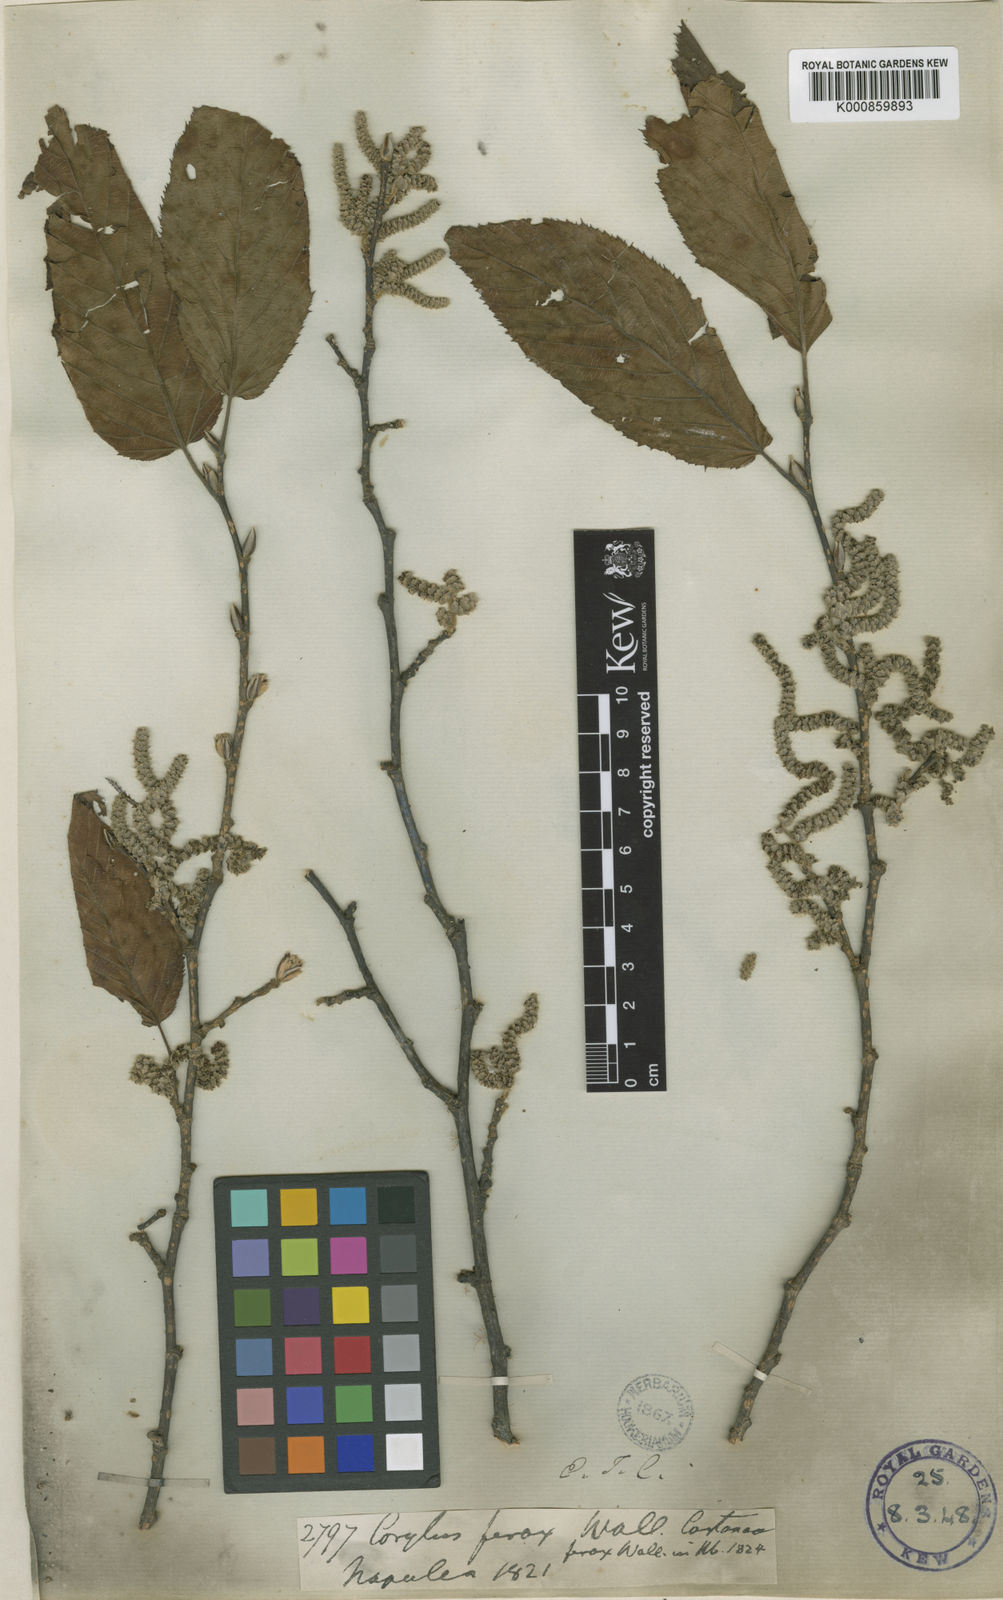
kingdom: Plantae
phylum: Tracheophyta
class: Magnoliopsida
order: Fagales
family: Betulaceae
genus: Corylus
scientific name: Corylus jacquemontii
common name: Indian tree hazel
